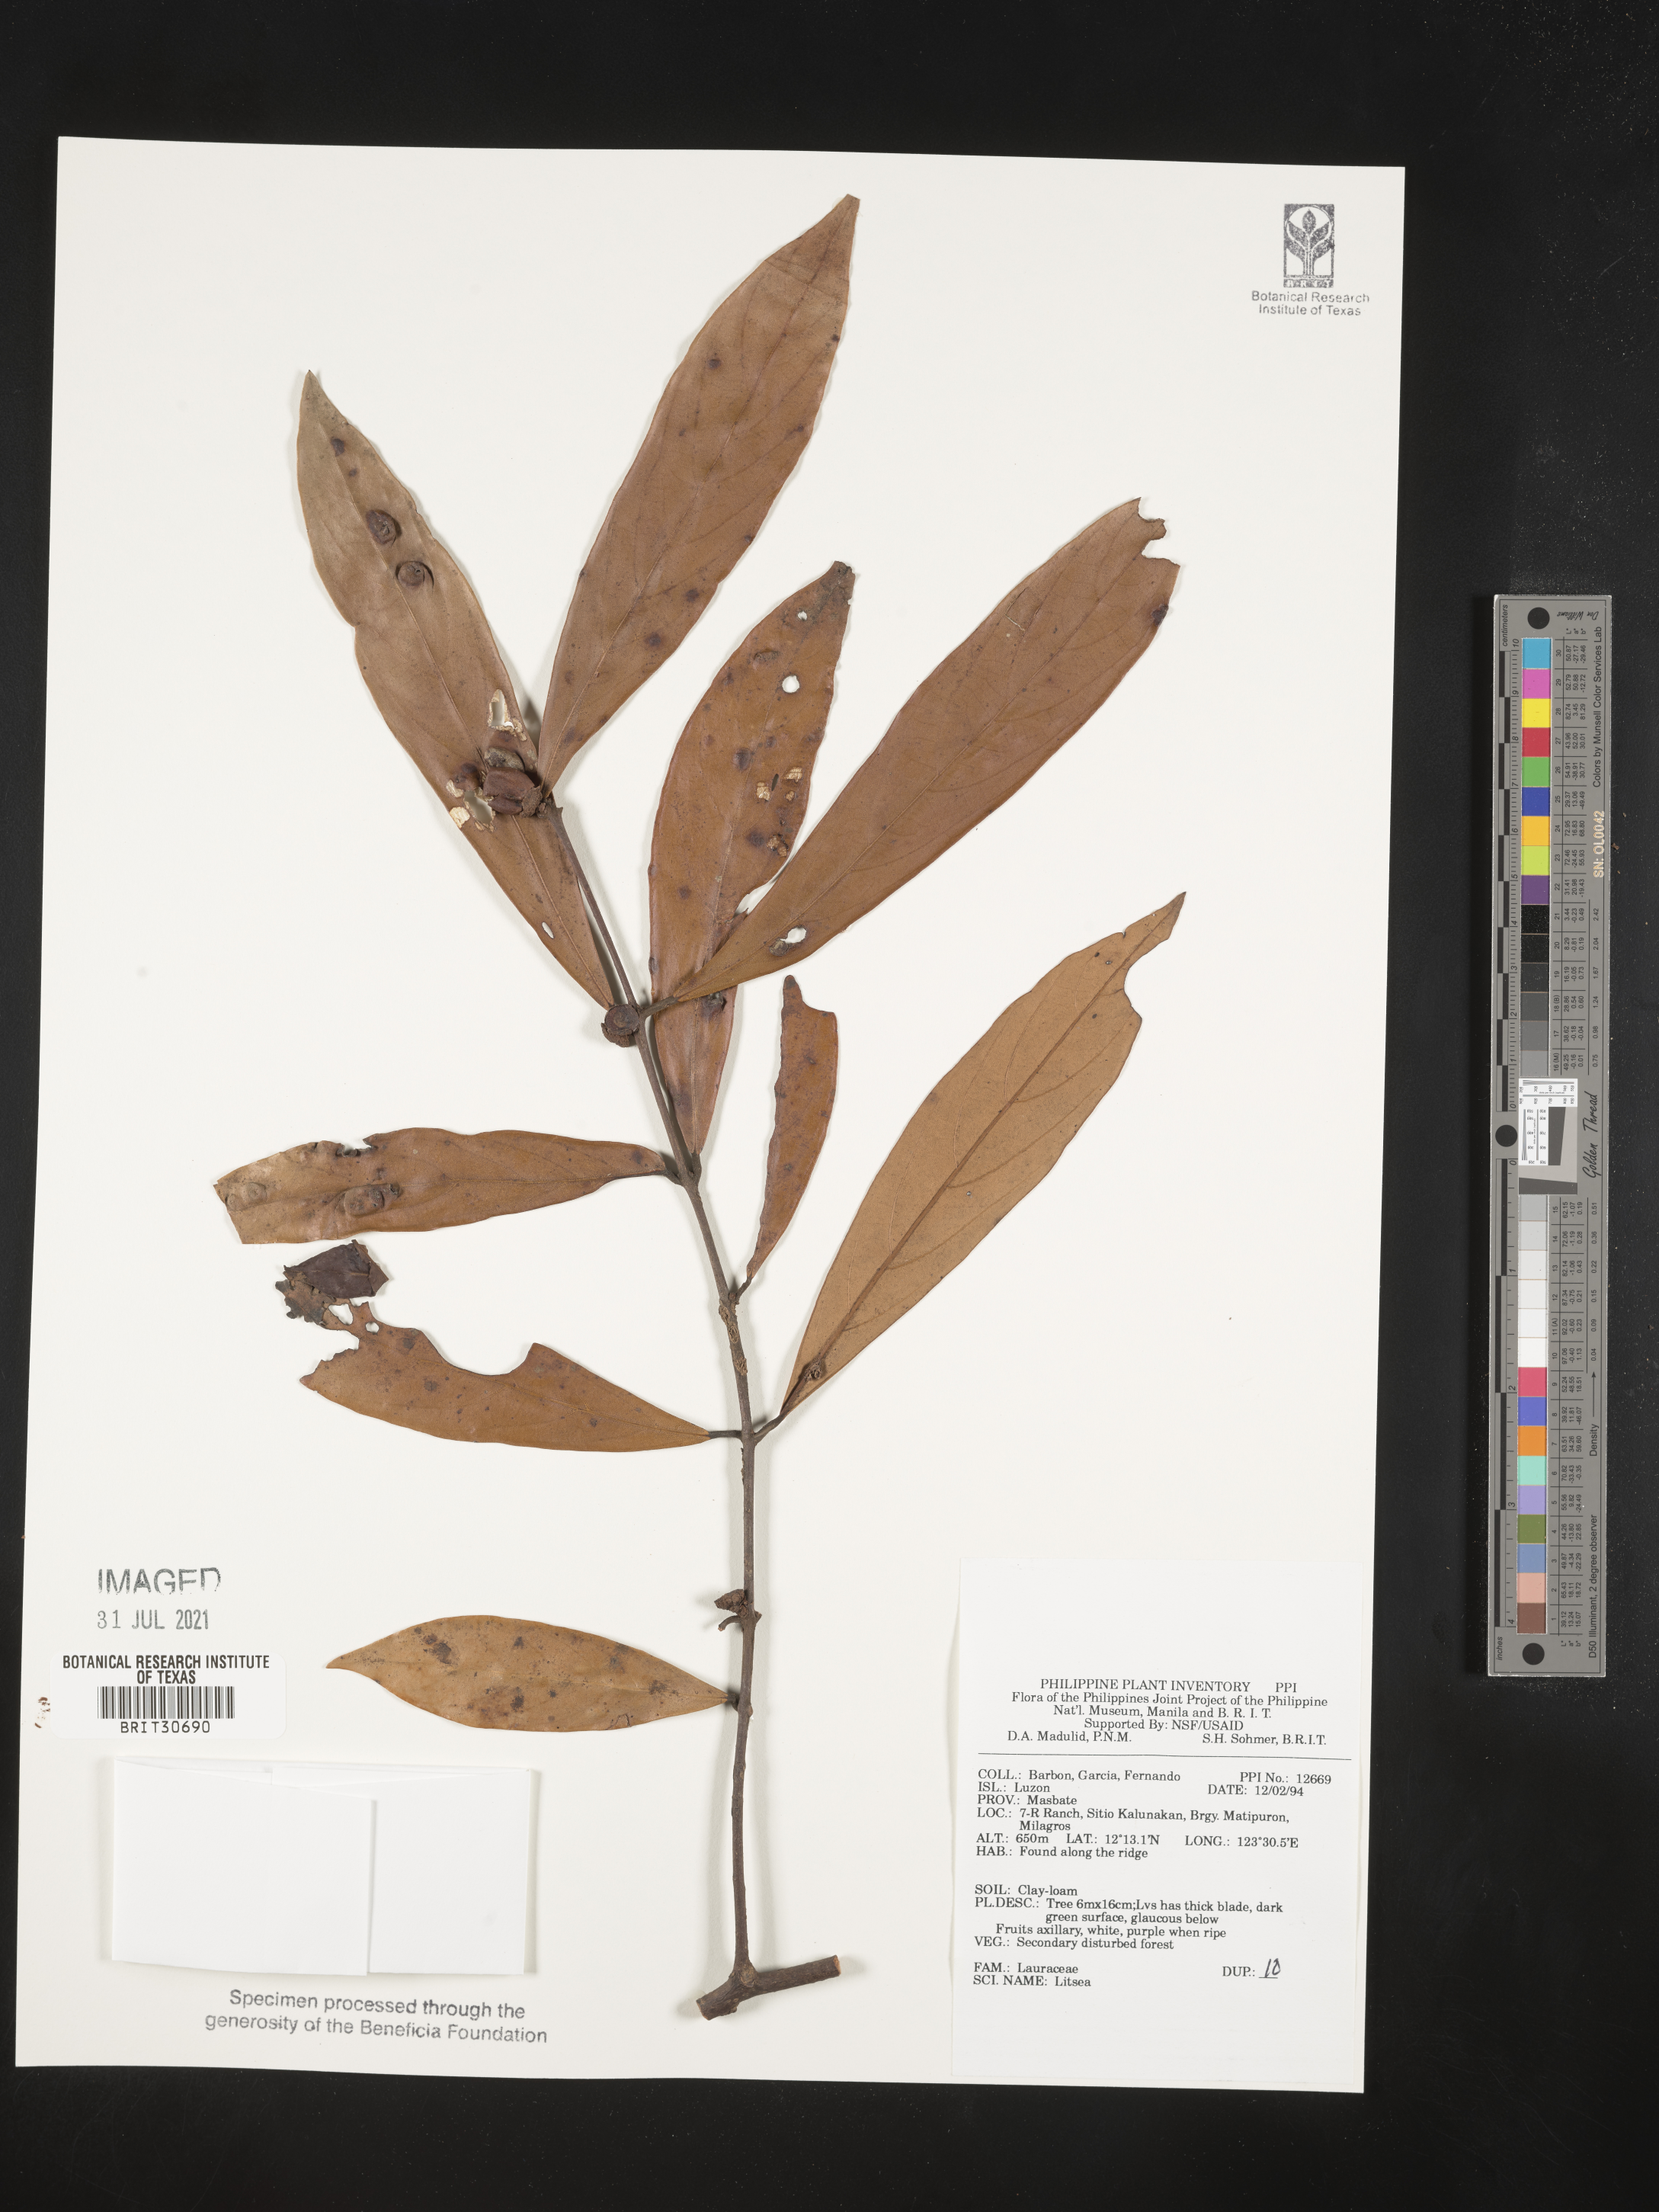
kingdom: Plantae
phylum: Tracheophyta
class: Magnoliopsida
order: Laurales
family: Lauraceae
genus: Litsea
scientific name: Litsea
